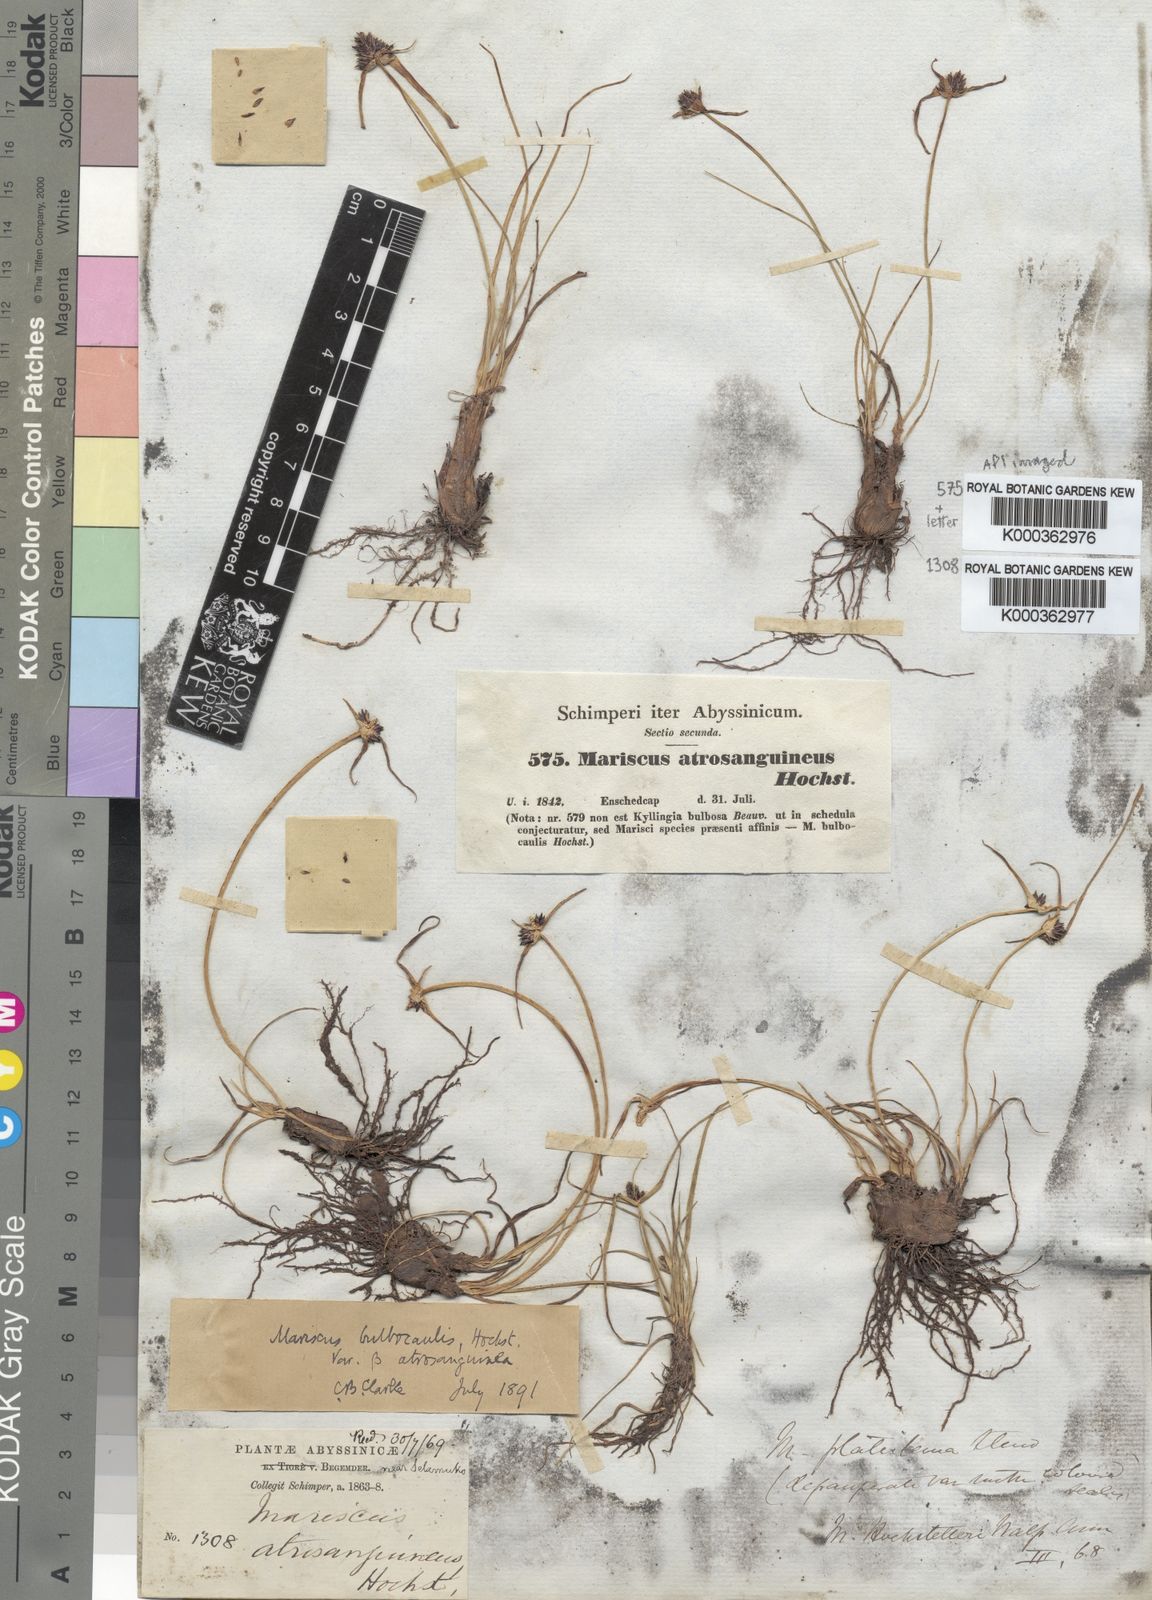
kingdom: Plantae
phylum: Tracheophyta
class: Liliopsida
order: Poales
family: Cyperaceae
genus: Cyperus
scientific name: Cyperus
